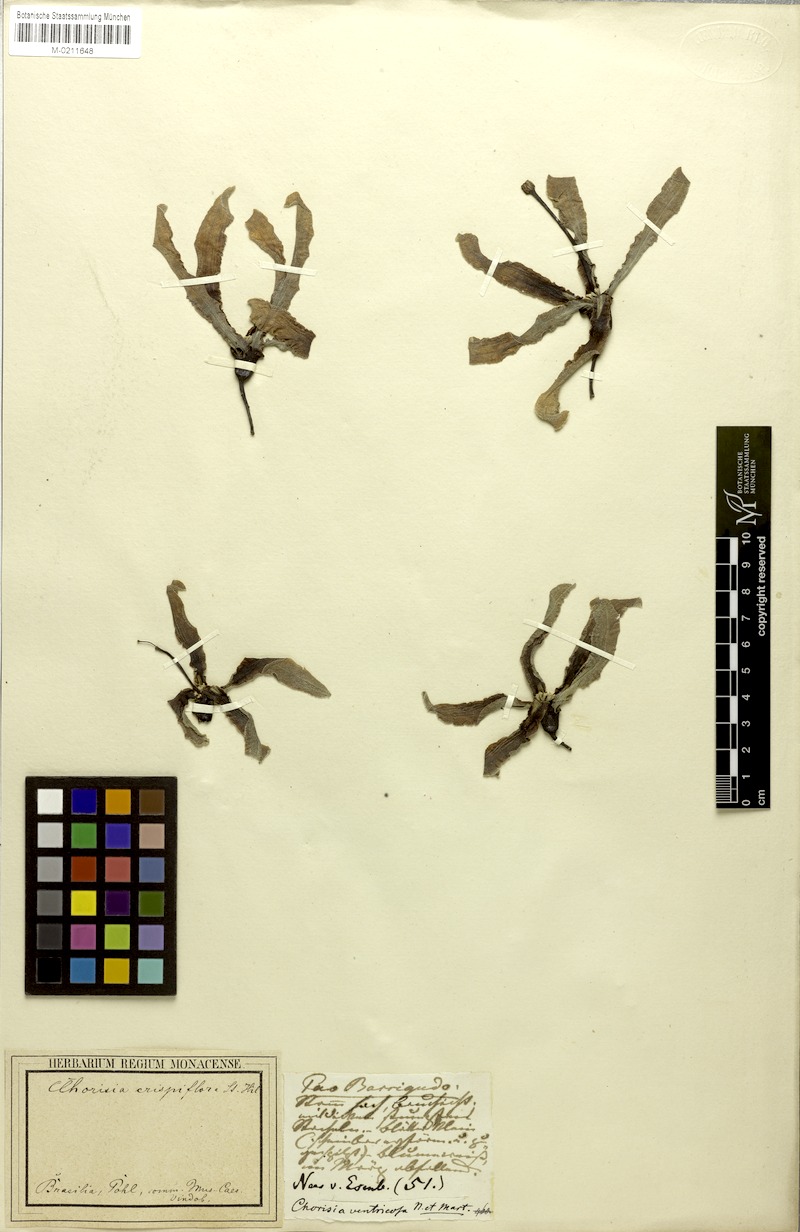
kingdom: Plantae
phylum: Tracheophyta
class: Magnoliopsida
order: Malvales
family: Malvaceae
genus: Ceiba
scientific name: Ceiba crispiflora
